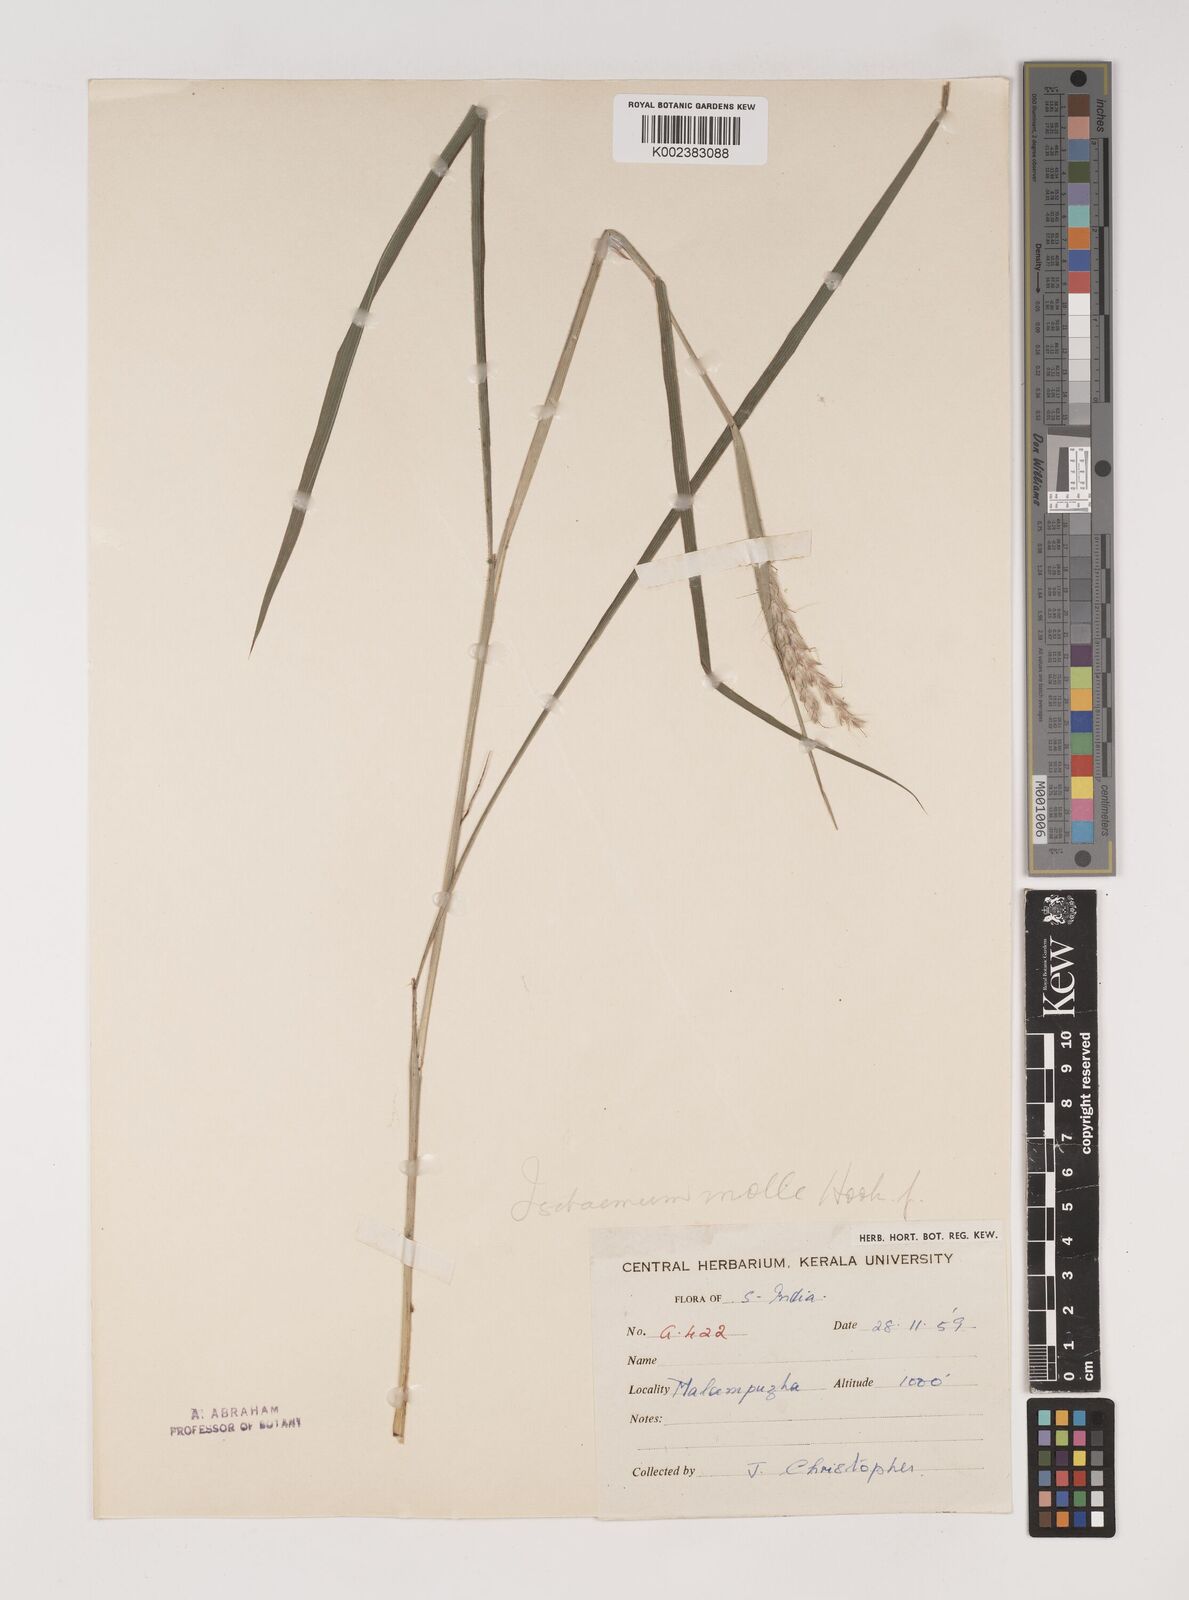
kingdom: Plantae
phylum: Tracheophyta
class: Liliopsida
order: Poales
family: Poaceae
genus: Ischaemum
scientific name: Ischaemum molle
